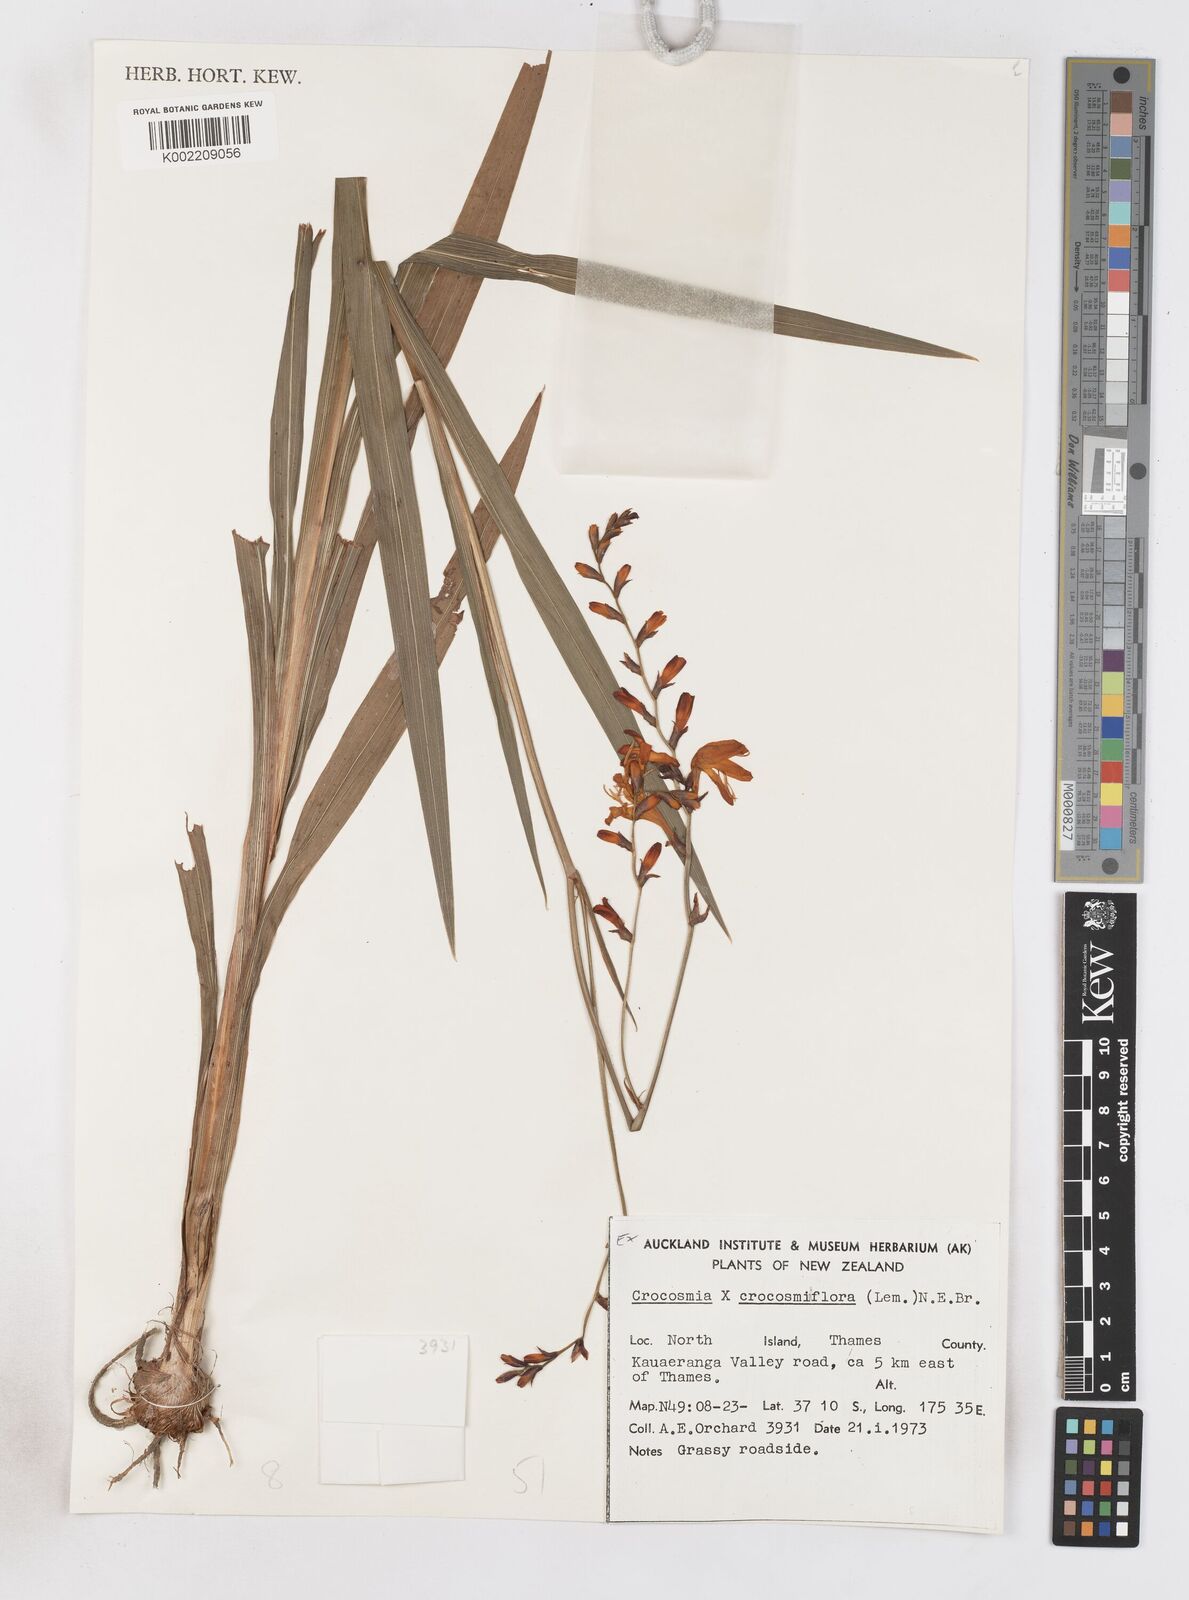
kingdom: Plantae
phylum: Tracheophyta
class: Liliopsida
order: Asparagales
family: Iridaceae
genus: Crocosmia
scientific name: Crocosmia crocosmiiflora
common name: Montbretia
